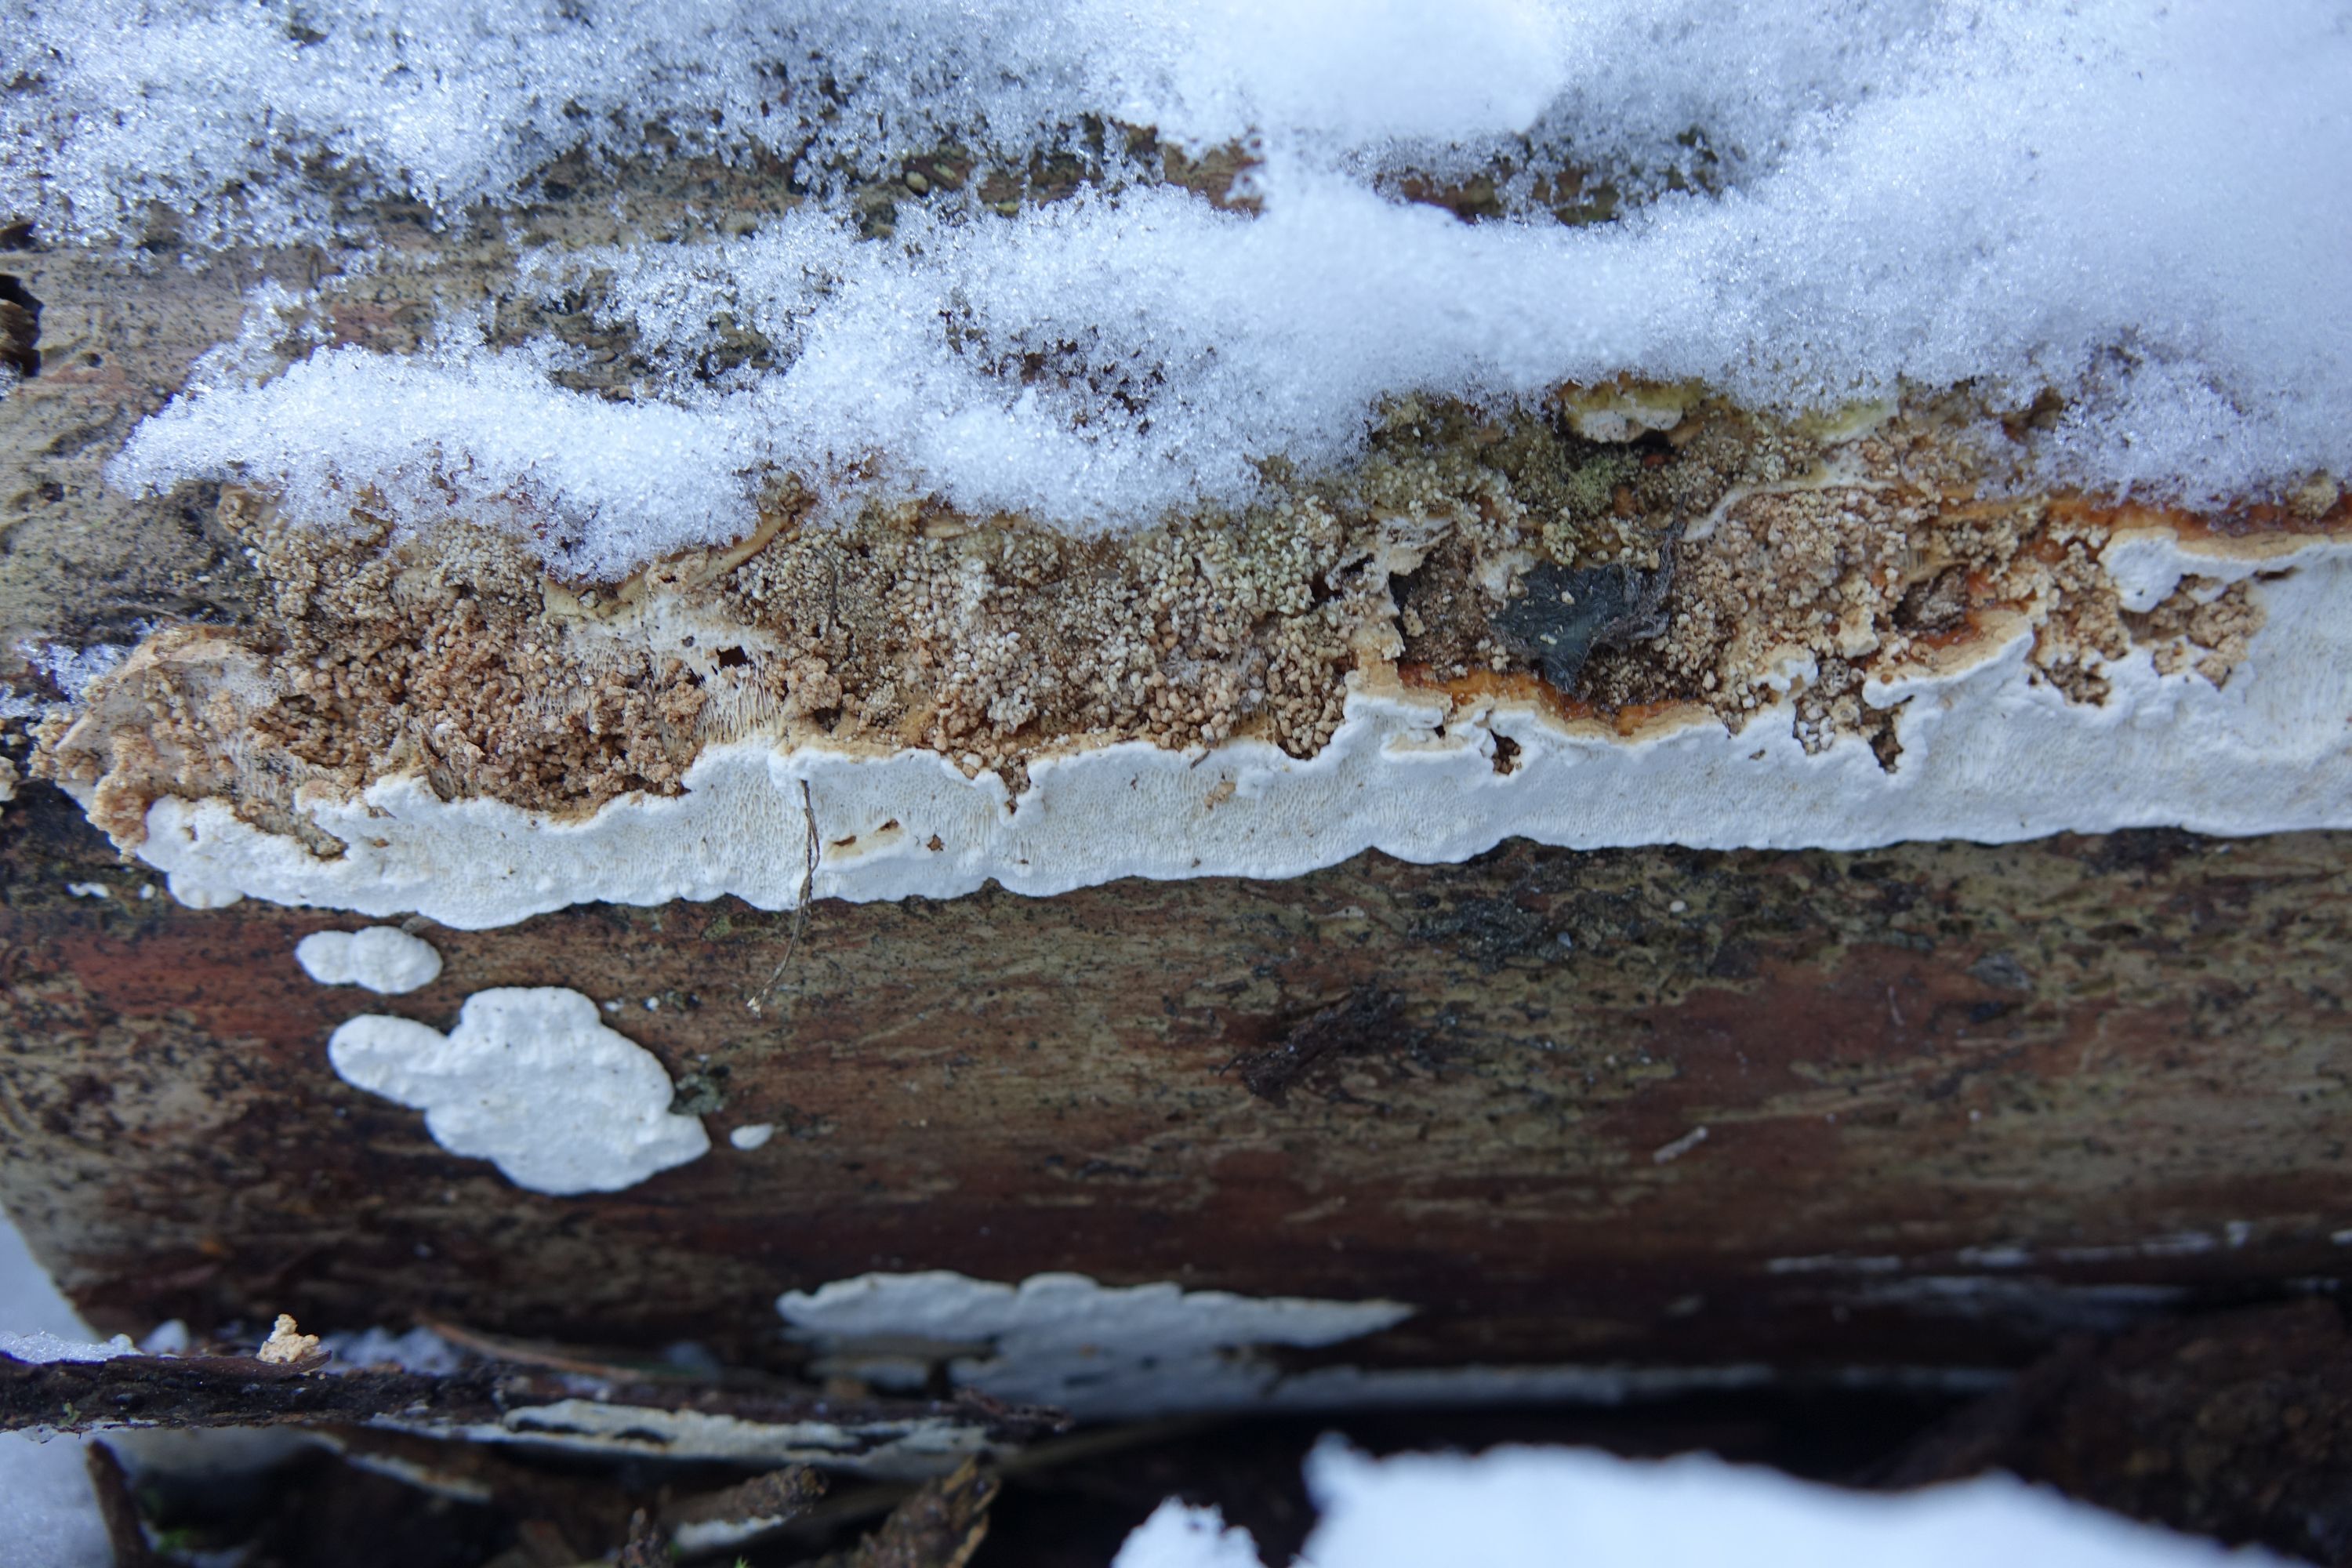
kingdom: Fungi
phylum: Basidiomycota
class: Agaricomycetes
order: Polyporales
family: Fomitopsidaceae
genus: Neoantrodia
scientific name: Neoantrodia serialis
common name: Serried porecrust
